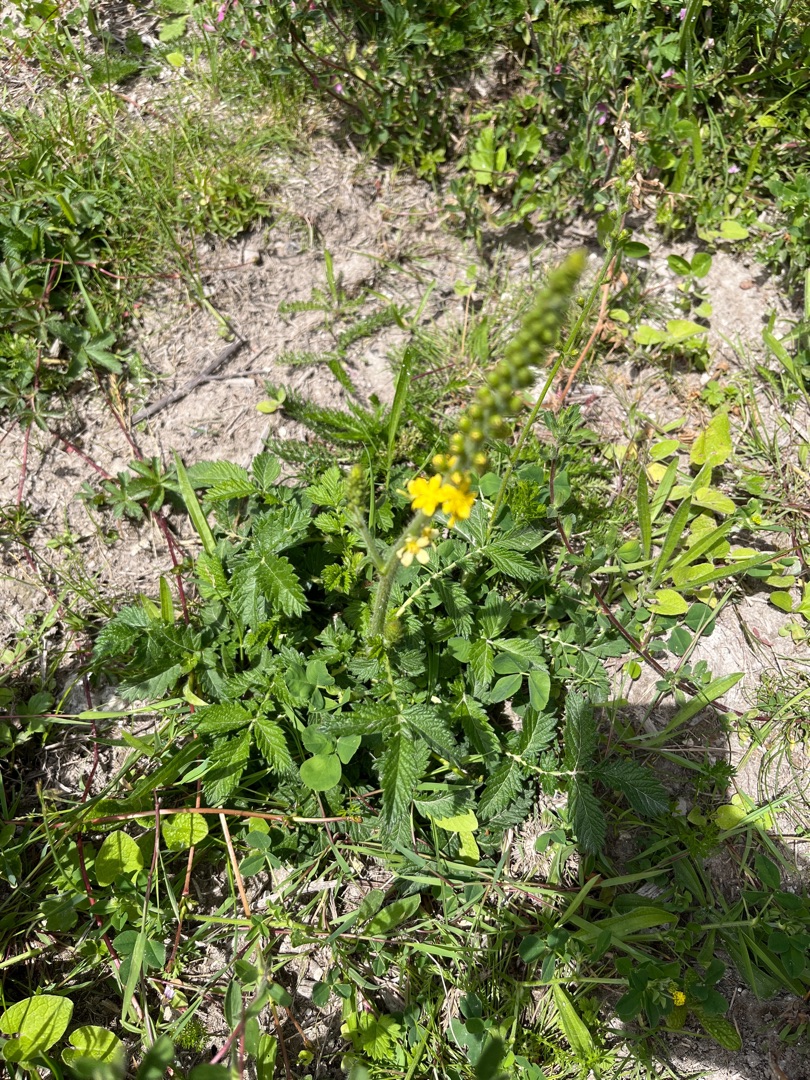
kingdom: Plantae
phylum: Tracheophyta
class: Magnoliopsida
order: Rosales
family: Rosaceae
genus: Agrimonia
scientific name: Agrimonia eupatoria
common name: Almindelig agermåne
